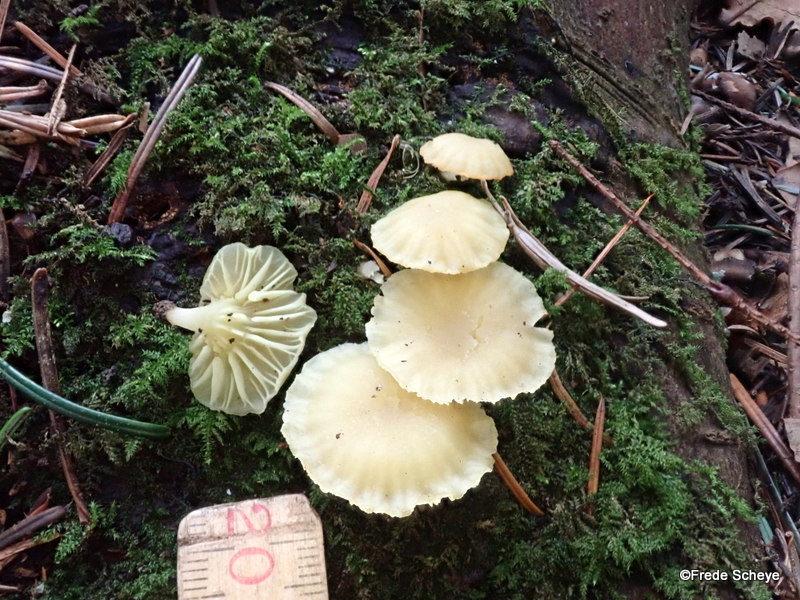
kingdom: Fungi
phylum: Basidiomycota
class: Agaricomycetes
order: Agaricales
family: Hygrophoraceae
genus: Chrysomphalina
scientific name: Chrysomphalina grossula
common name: stød-gyldenblad
